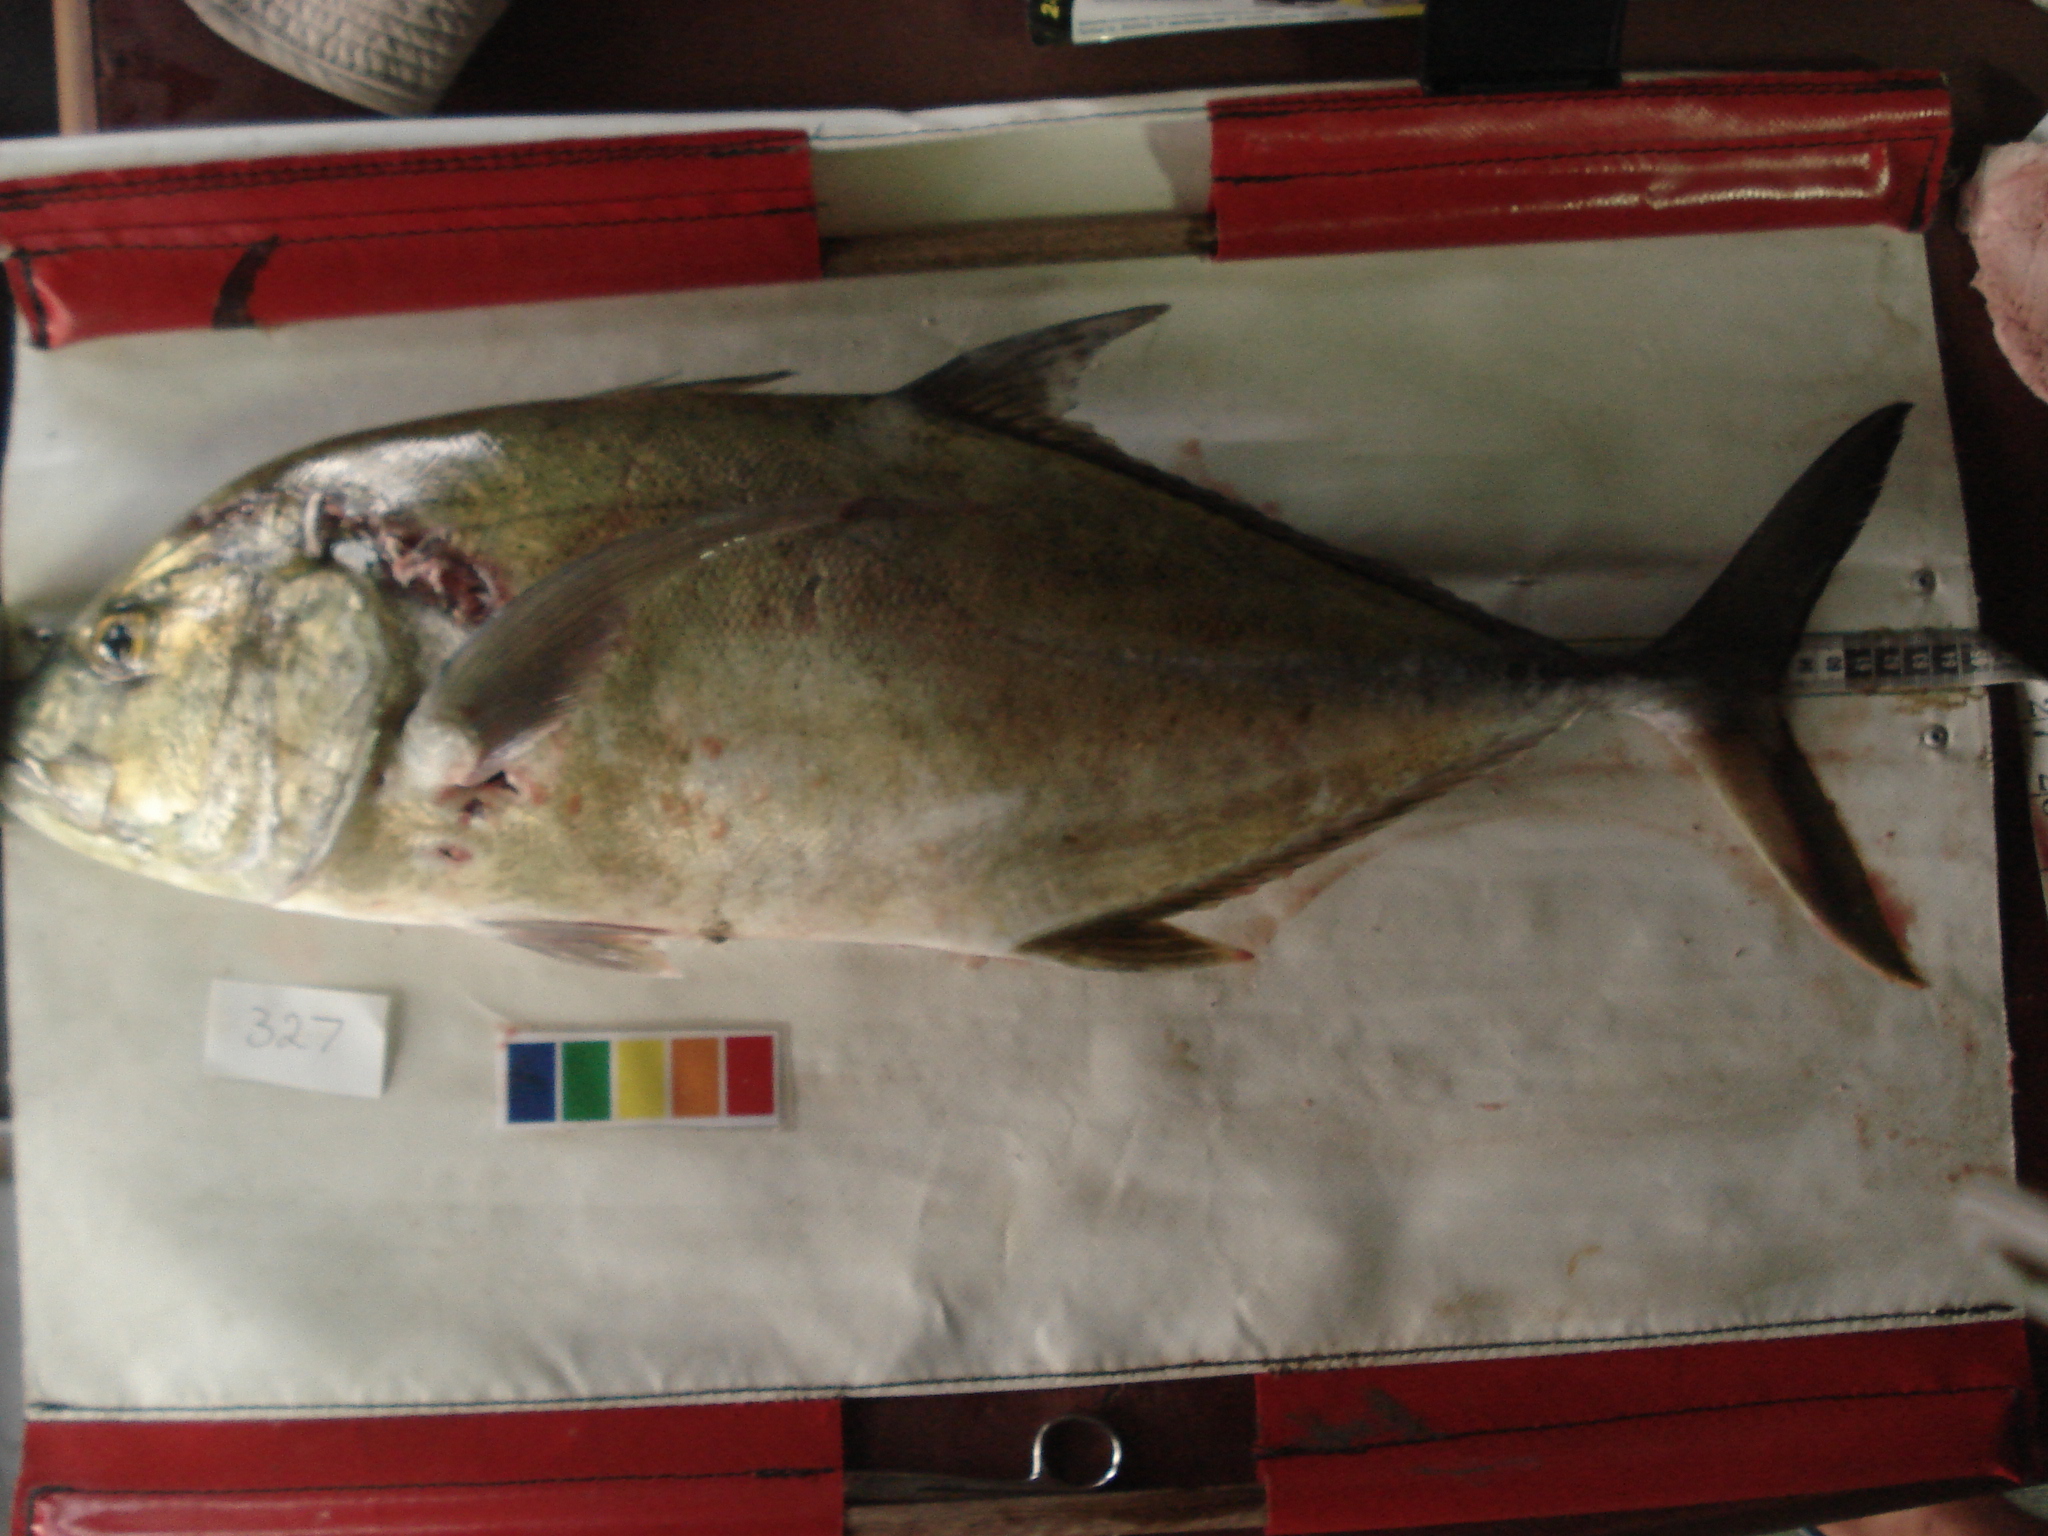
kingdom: Animalia
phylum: Chordata
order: Perciformes
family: Carangidae
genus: Caranx
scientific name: Caranx papuensis
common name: Brassy trevally
